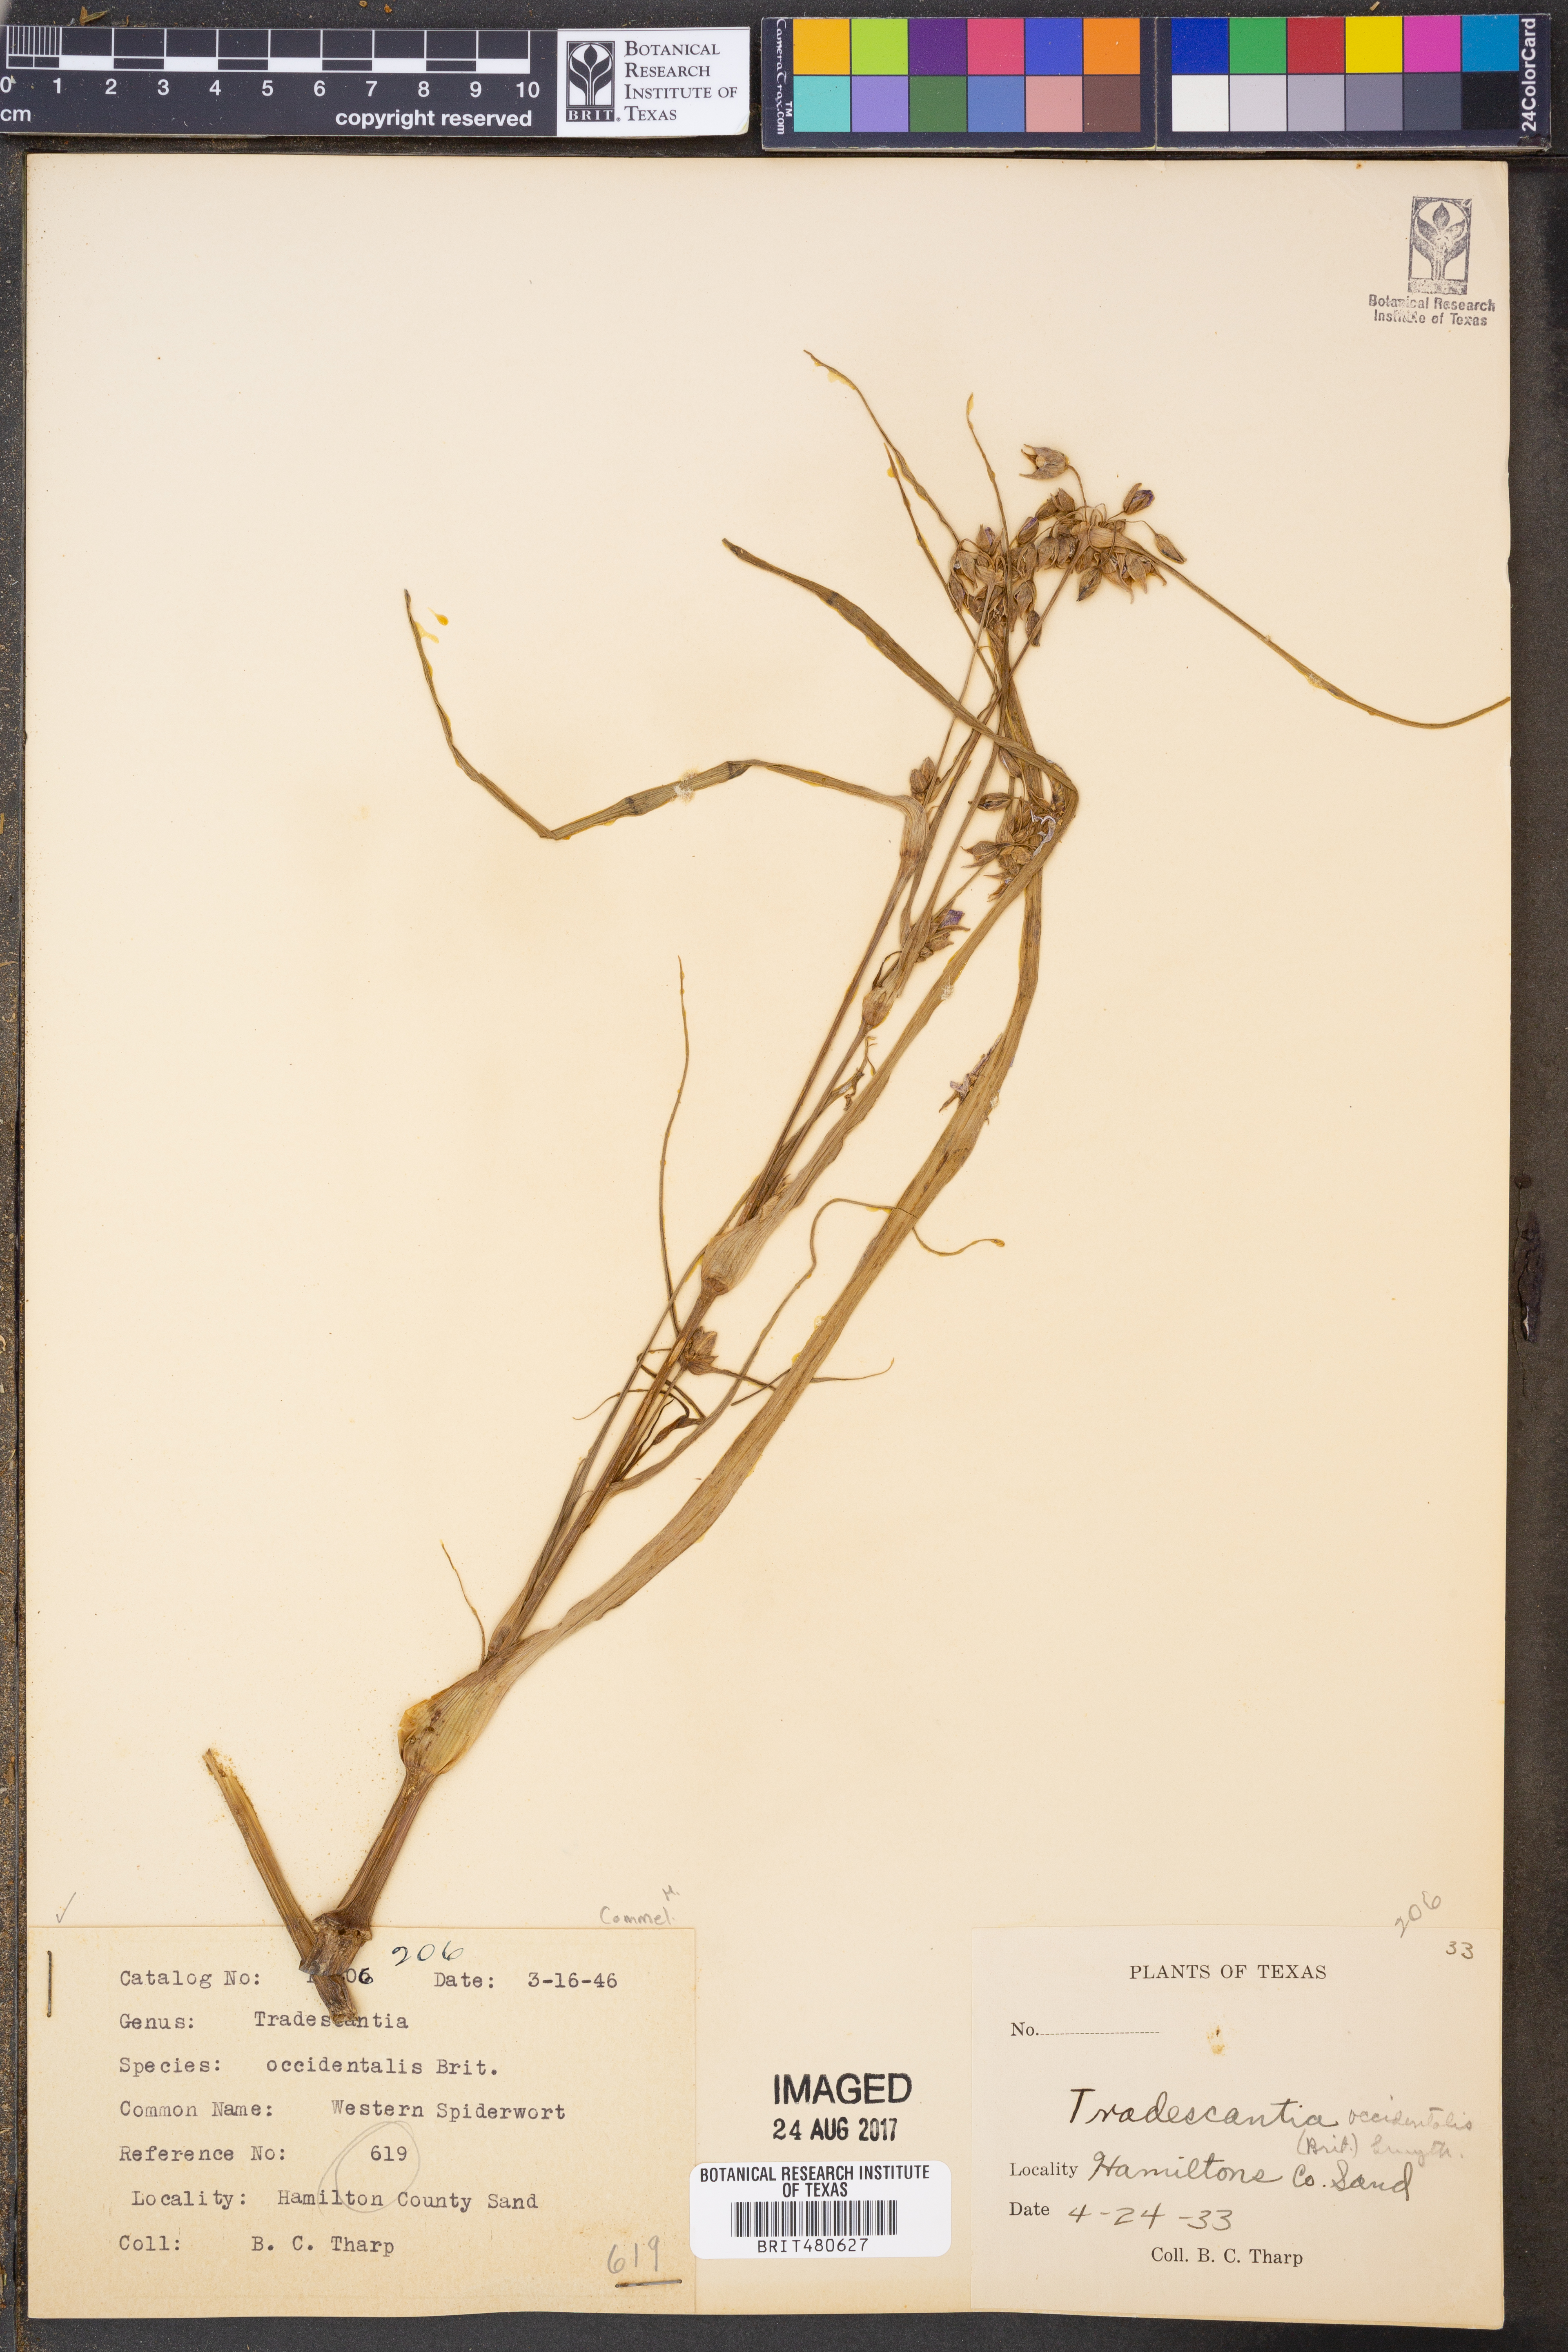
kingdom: Plantae
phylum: Tracheophyta
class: Liliopsida
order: Commelinales
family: Commelinaceae
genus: Tradescantia
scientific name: Tradescantia occidentalis
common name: Prairie spiderwort
